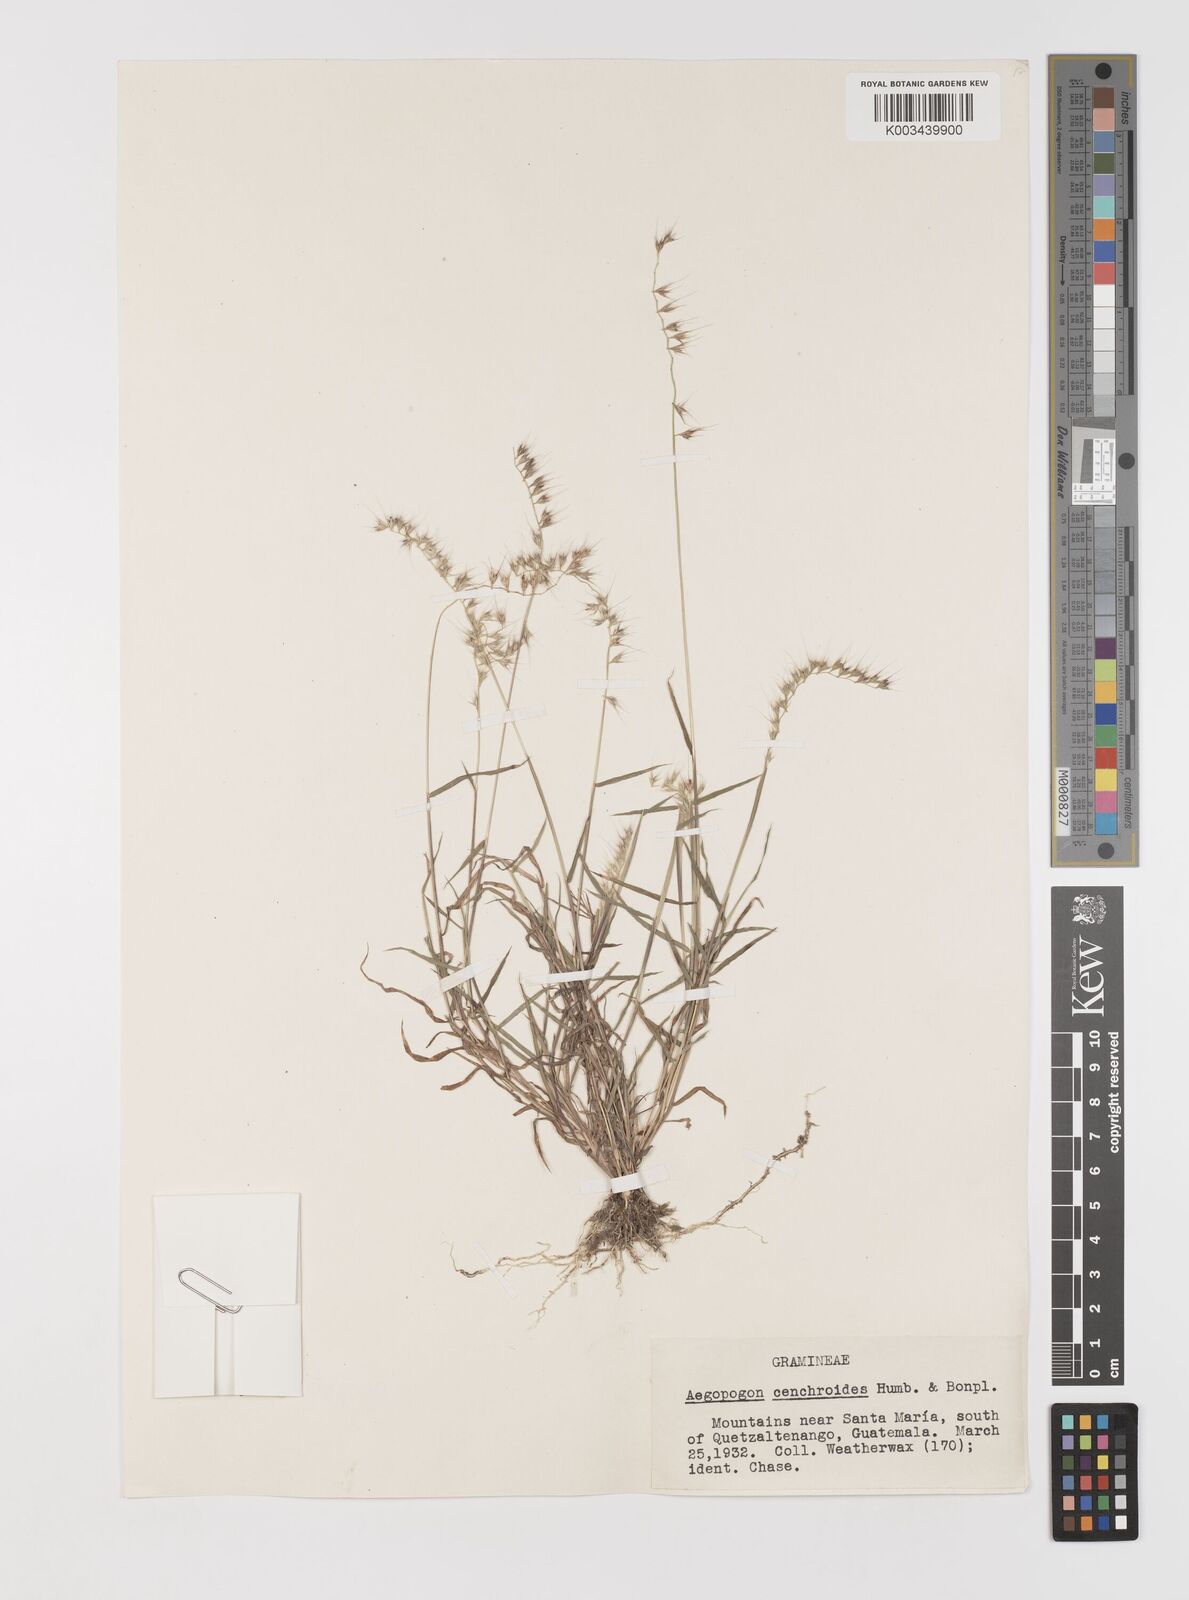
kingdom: Plantae
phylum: Tracheophyta
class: Liliopsida
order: Poales
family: Poaceae
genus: Muhlenbergia
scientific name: Muhlenbergia cenchroides
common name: Relaxgrass
